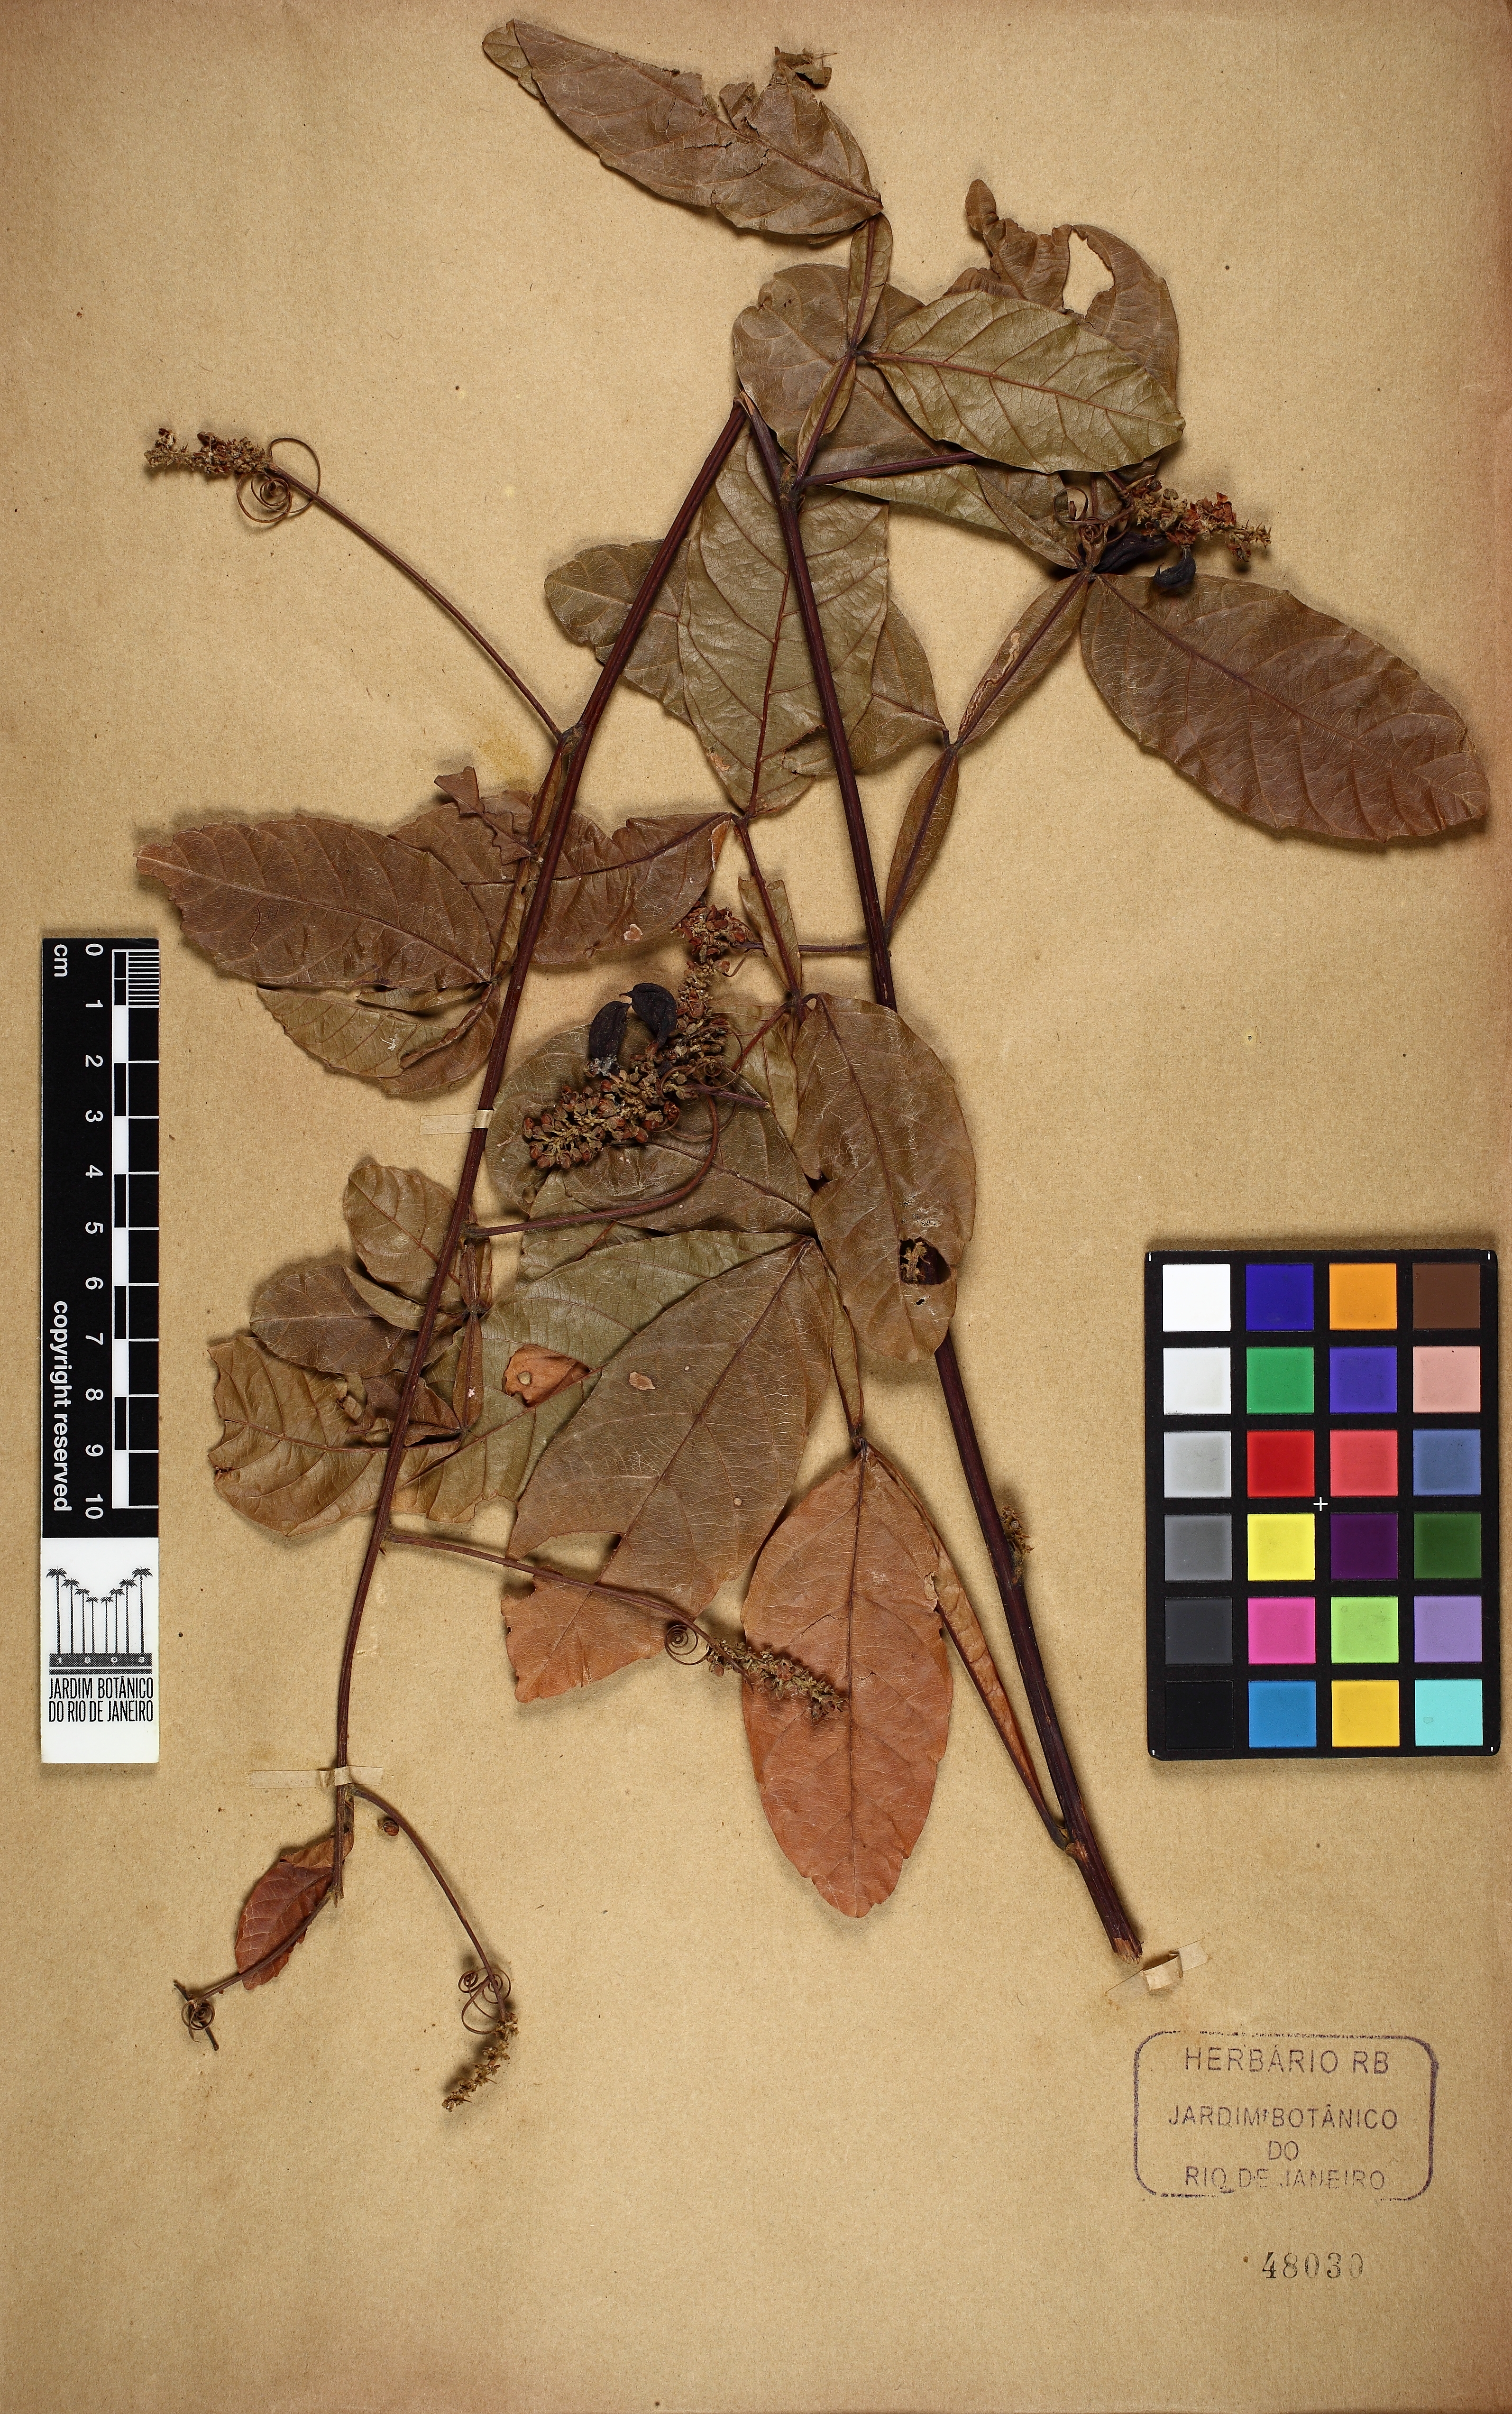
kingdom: Plantae
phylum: Tracheophyta
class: Magnoliopsida
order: Sapindales
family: Sapindaceae
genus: Paullinia
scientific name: Paullinia pinnata
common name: Barbasco
